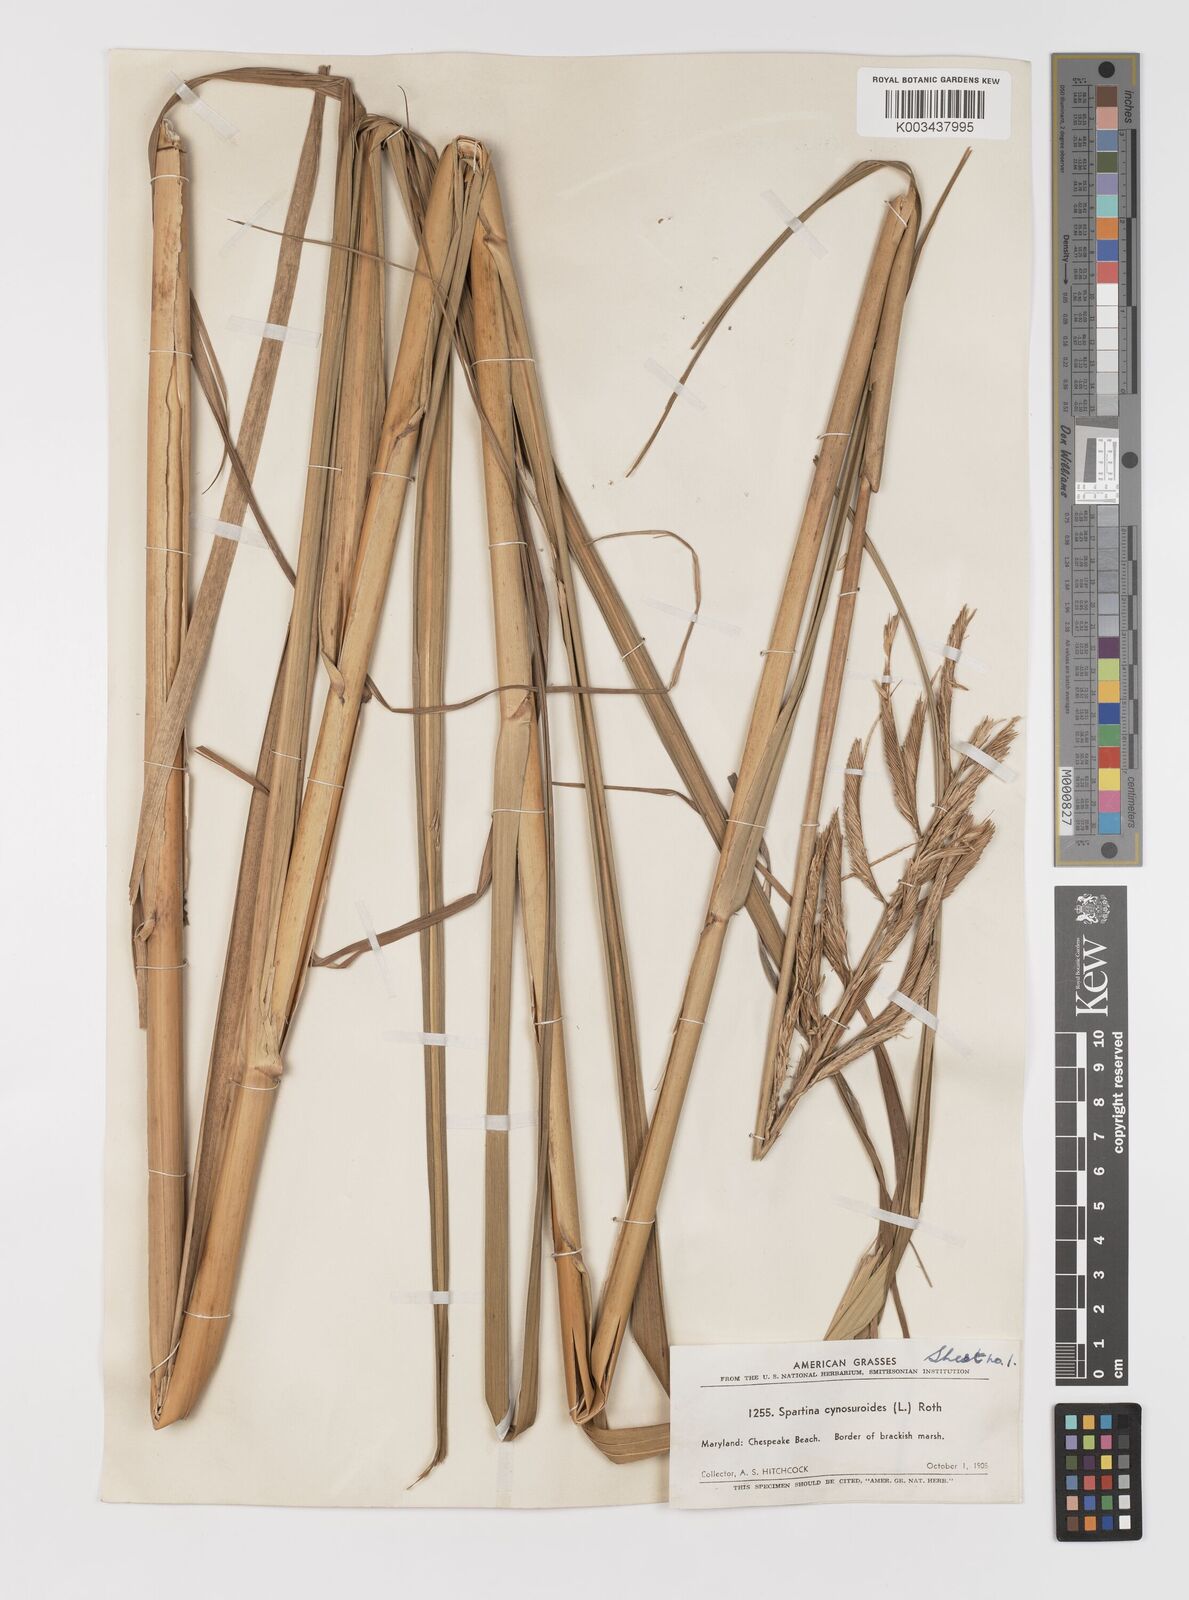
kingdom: Plantae
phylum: Tracheophyta
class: Liliopsida
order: Poales
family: Poaceae
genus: Sporobolus
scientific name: Sporobolus cynosuroides
